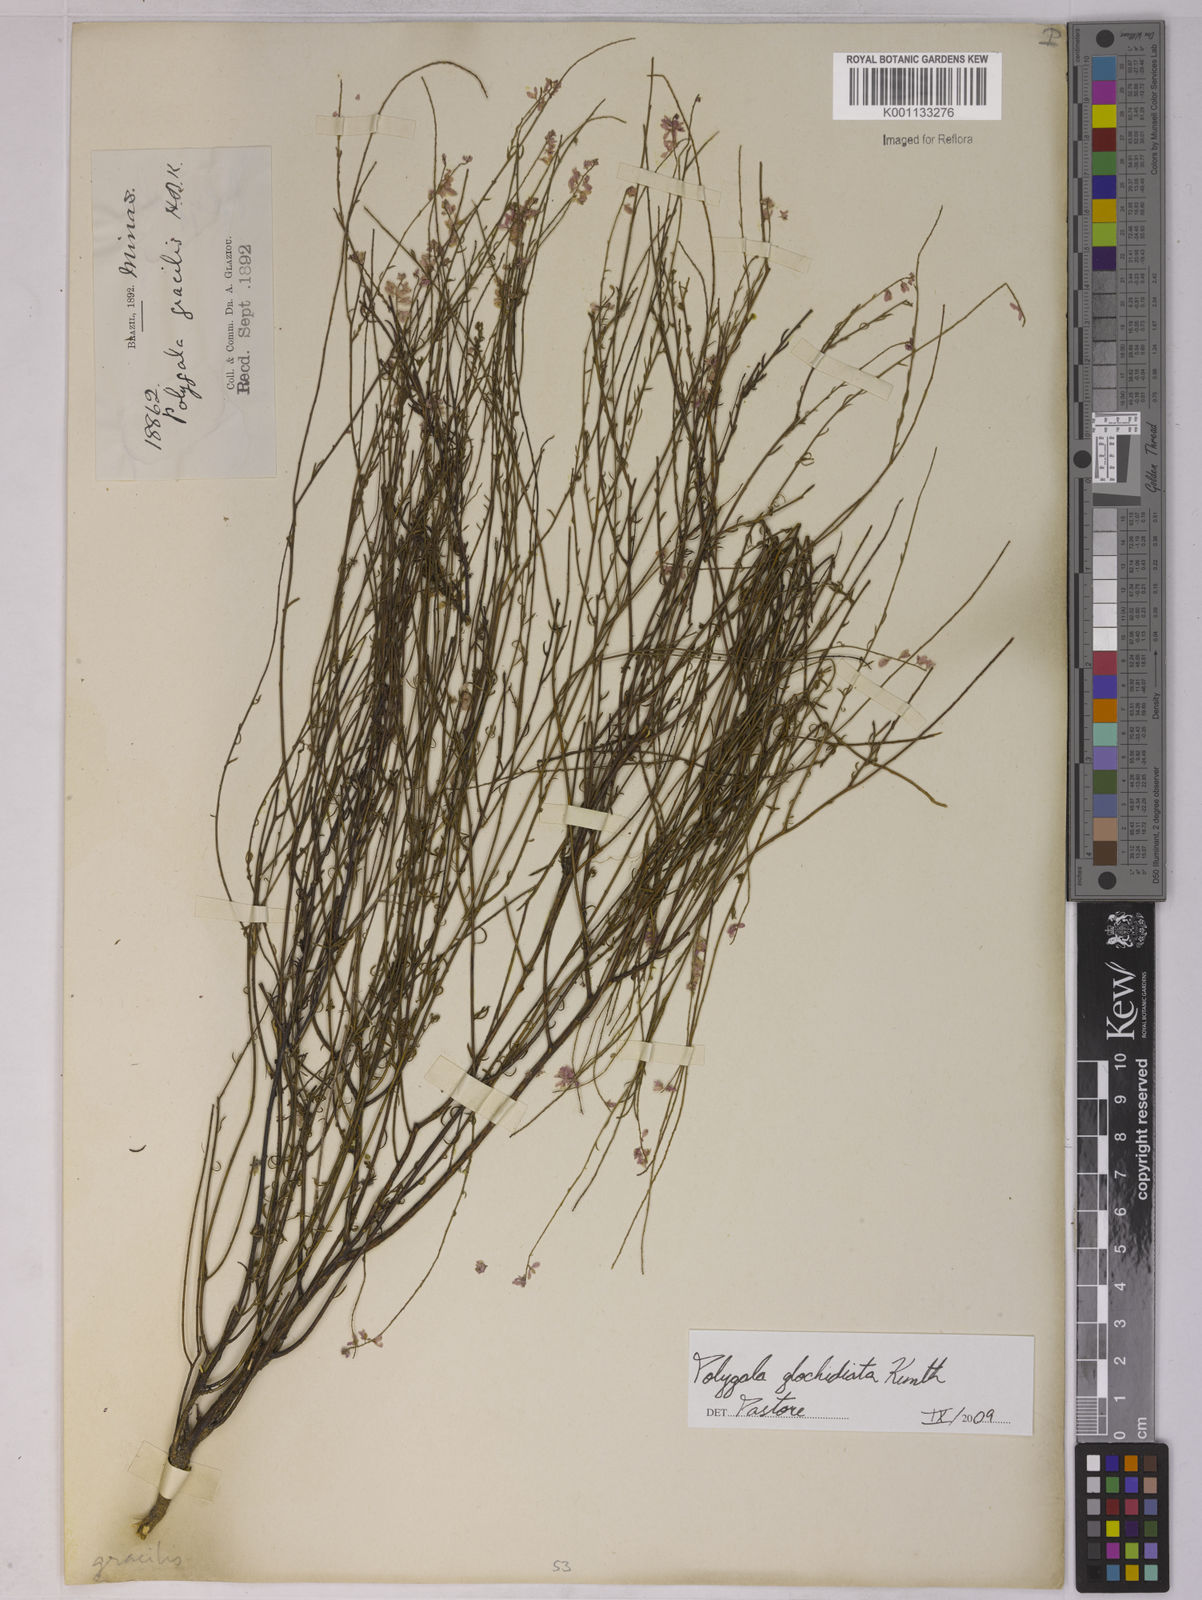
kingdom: Plantae
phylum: Tracheophyta
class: Magnoliopsida
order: Fabales
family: Polygalaceae
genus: Polygala
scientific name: Polygala glochidiata
